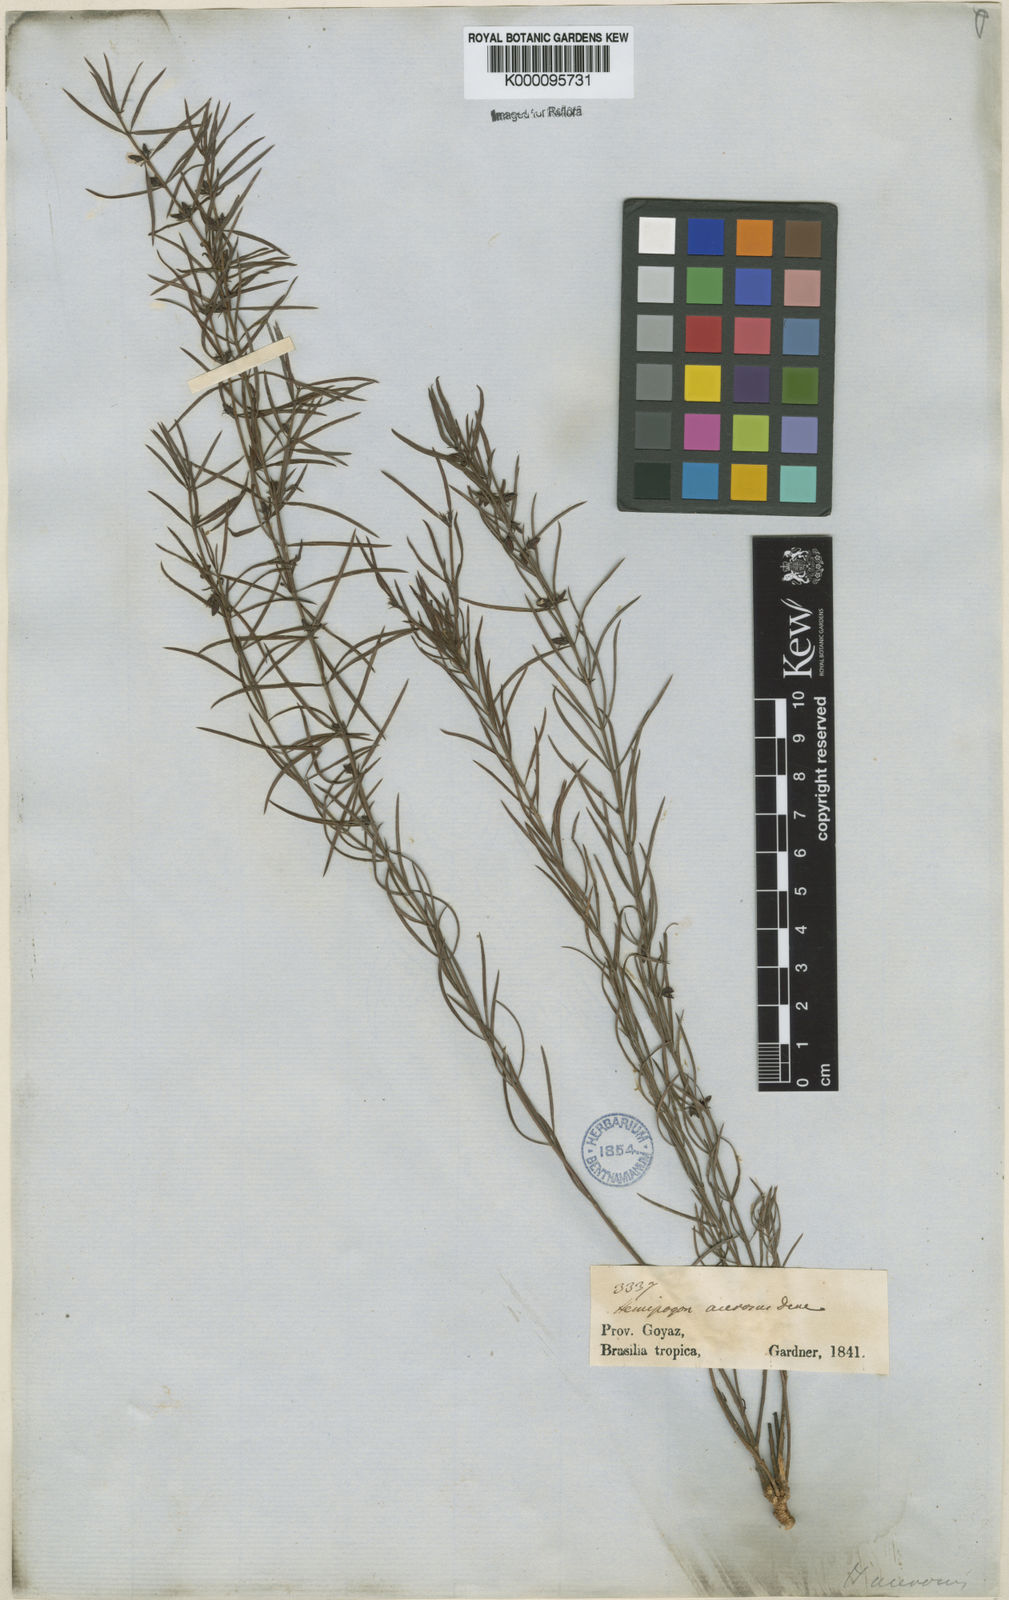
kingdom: Plantae
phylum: Tracheophyta
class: Magnoliopsida
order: Gentianales
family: Apocynaceae
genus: Hemipogon
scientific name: Hemipogon acerosus
